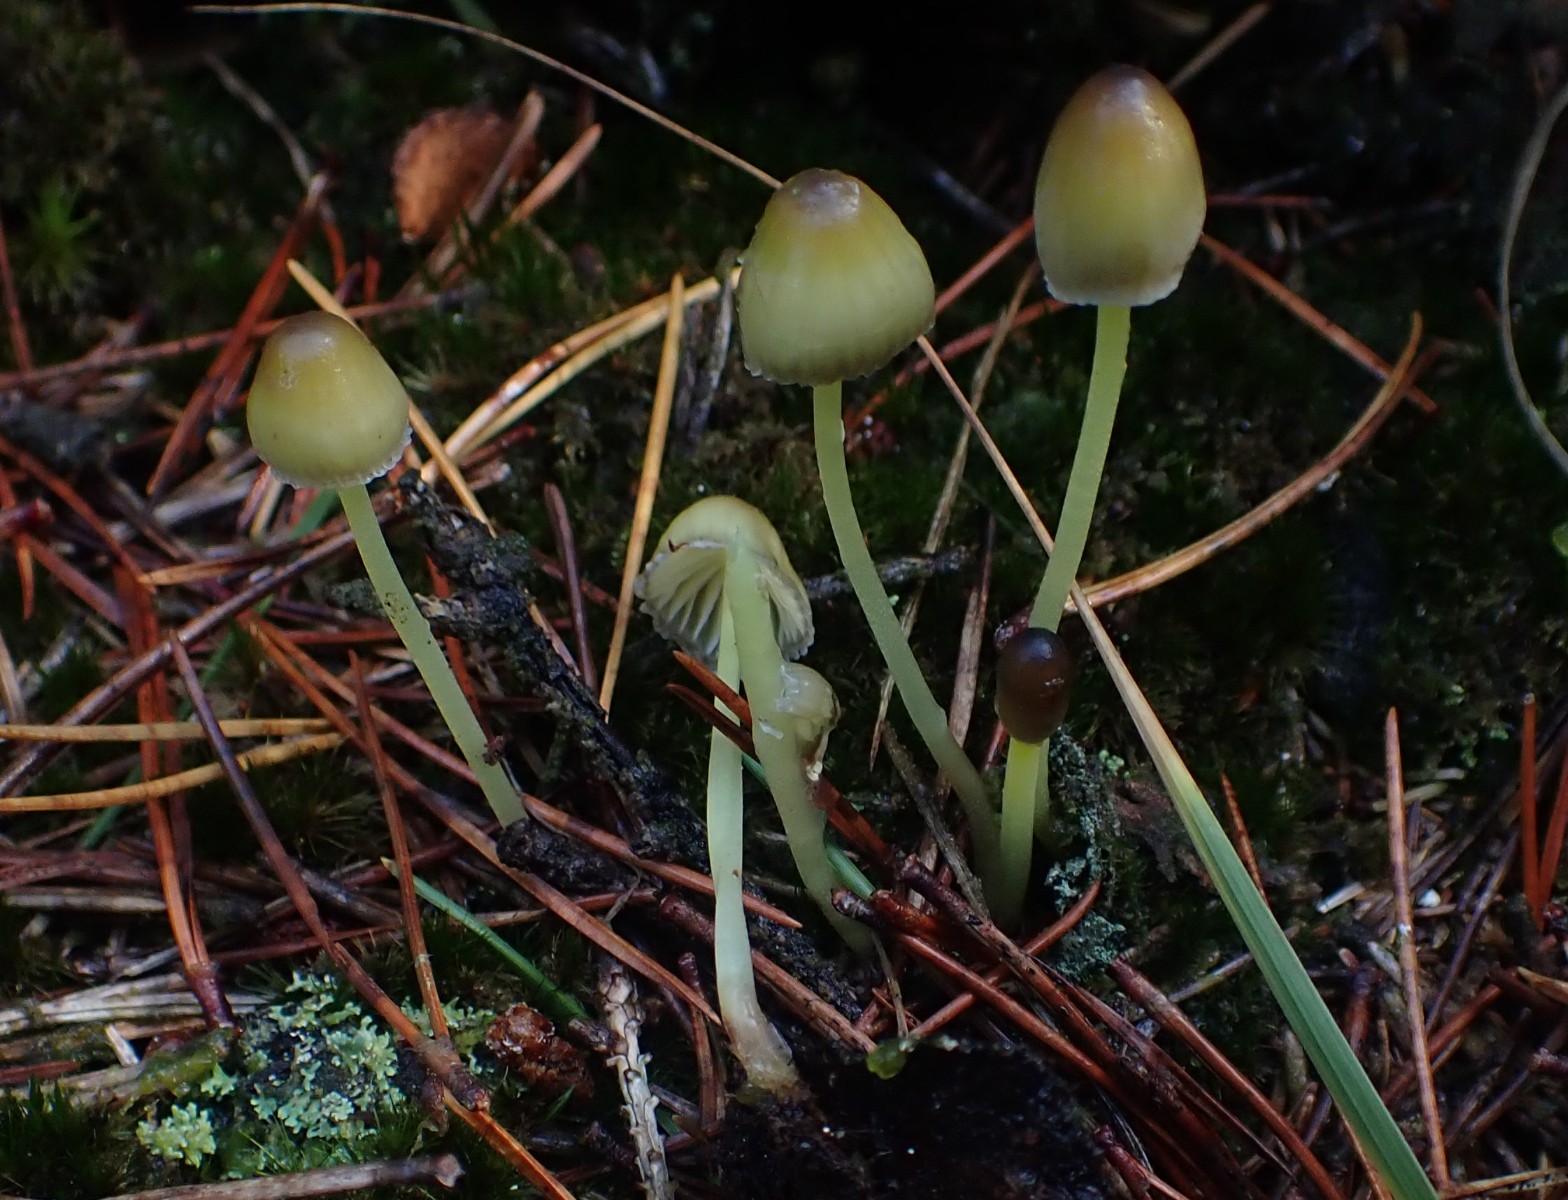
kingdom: Fungi
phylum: Basidiomycota
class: Agaricomycetes
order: Agaricales
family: Mycenaceae
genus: Mycena
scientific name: Mycena epipterygia
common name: gulstokket huesvamp
